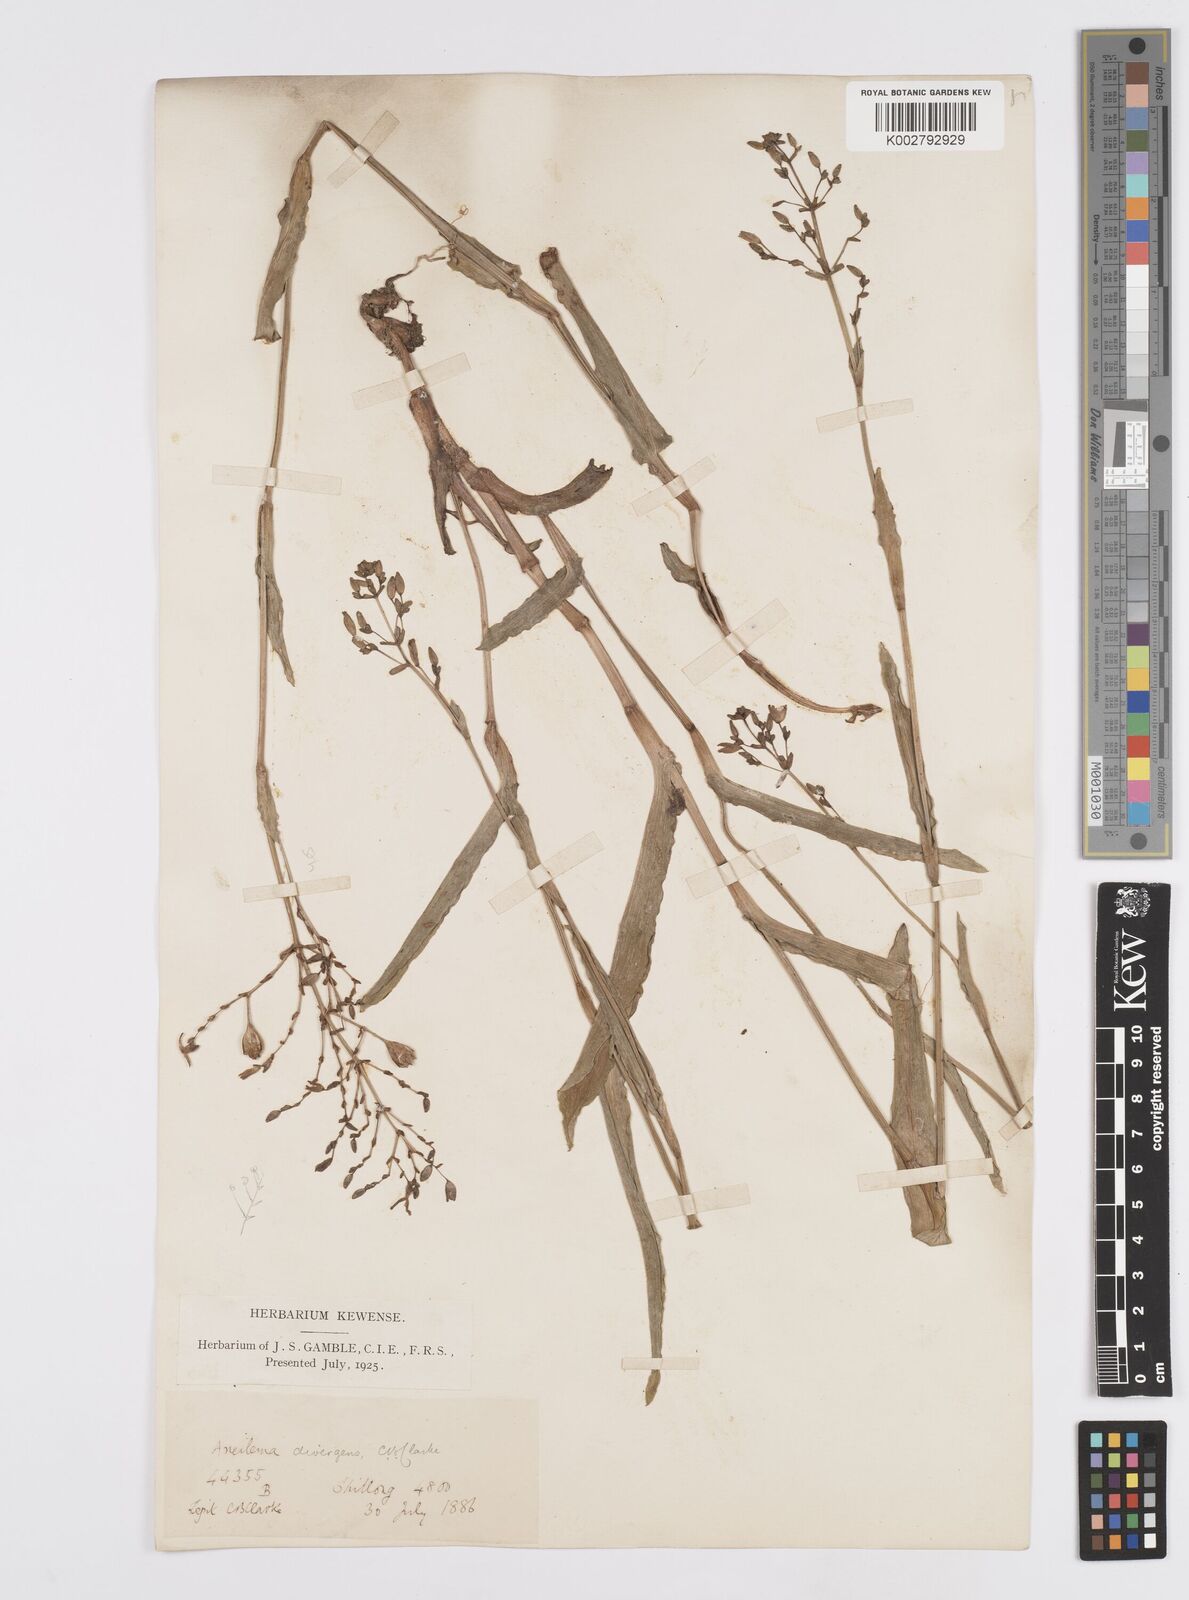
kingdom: Plantae
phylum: Tracheophyta
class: Liliopsida
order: Commelinales
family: Commelinaceae
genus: Murdannia
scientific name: Murdannia divergens
